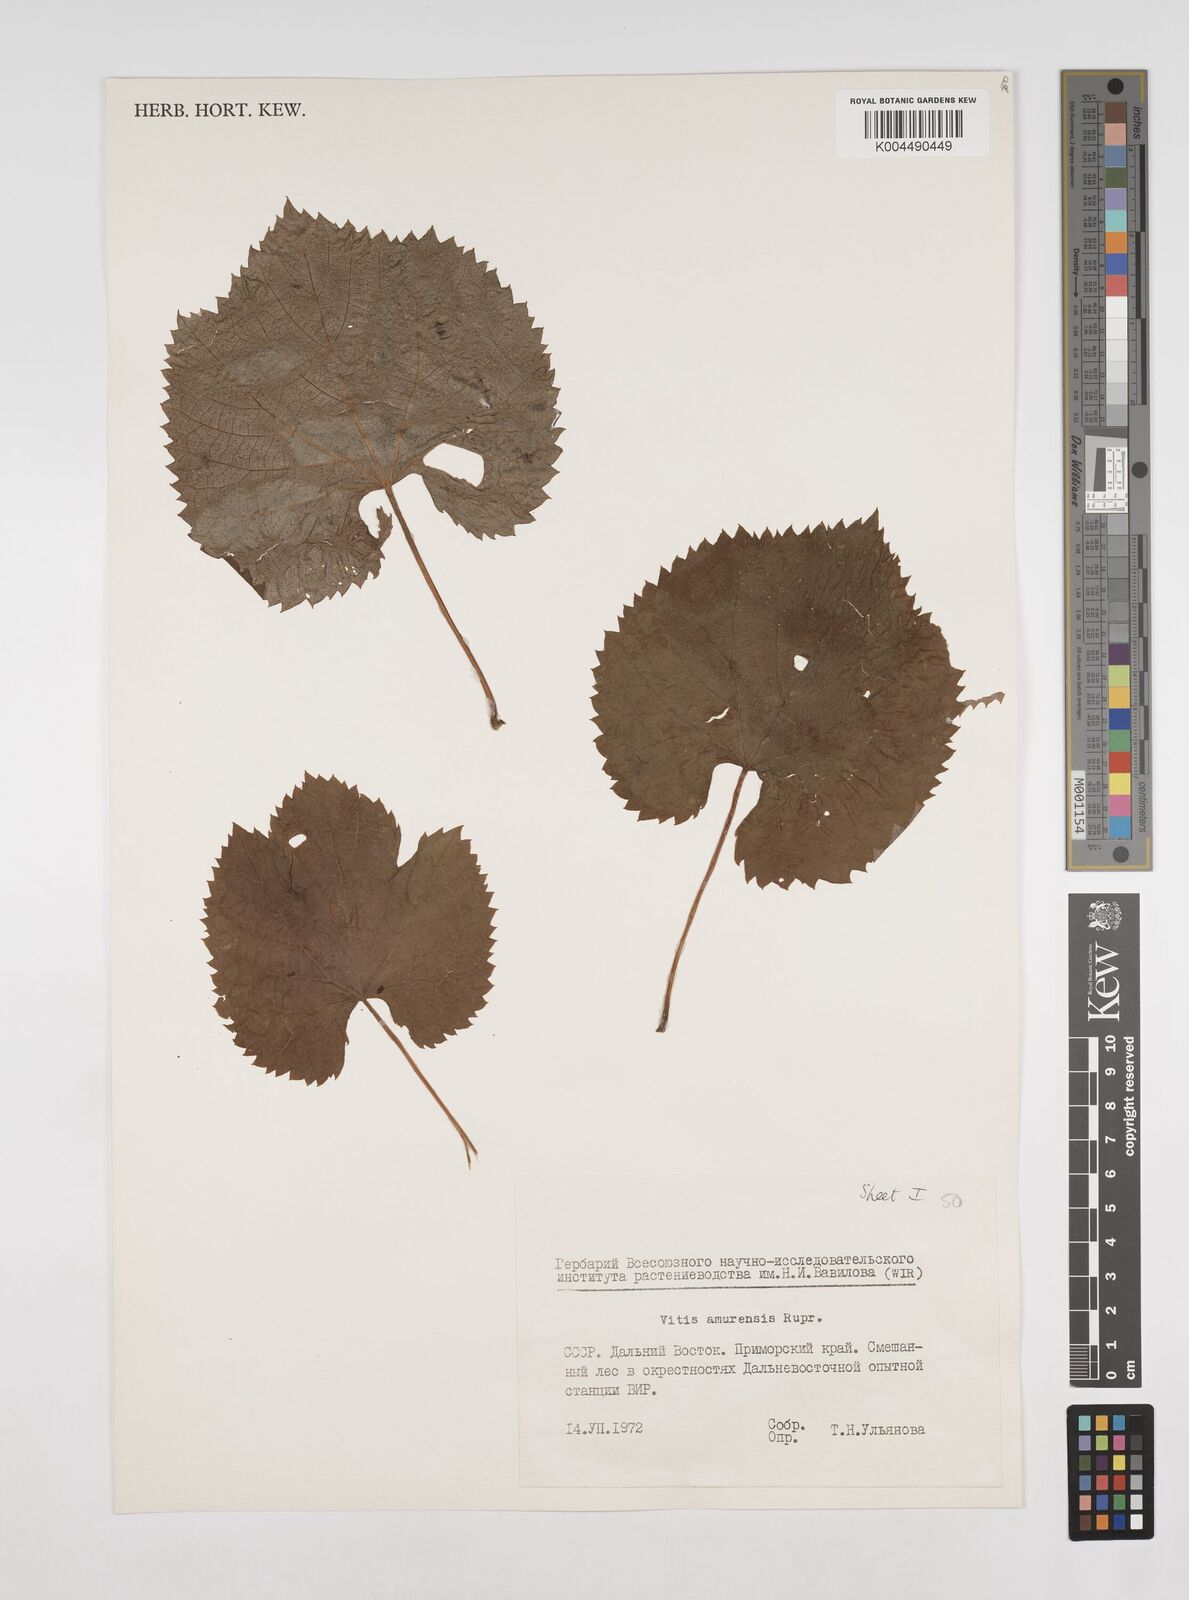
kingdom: Plantae
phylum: Tracheophyta
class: Magnoliopsida
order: Vitales
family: Vitaceae
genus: Vitis
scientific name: Vitis vinifera
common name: Grape-vine
